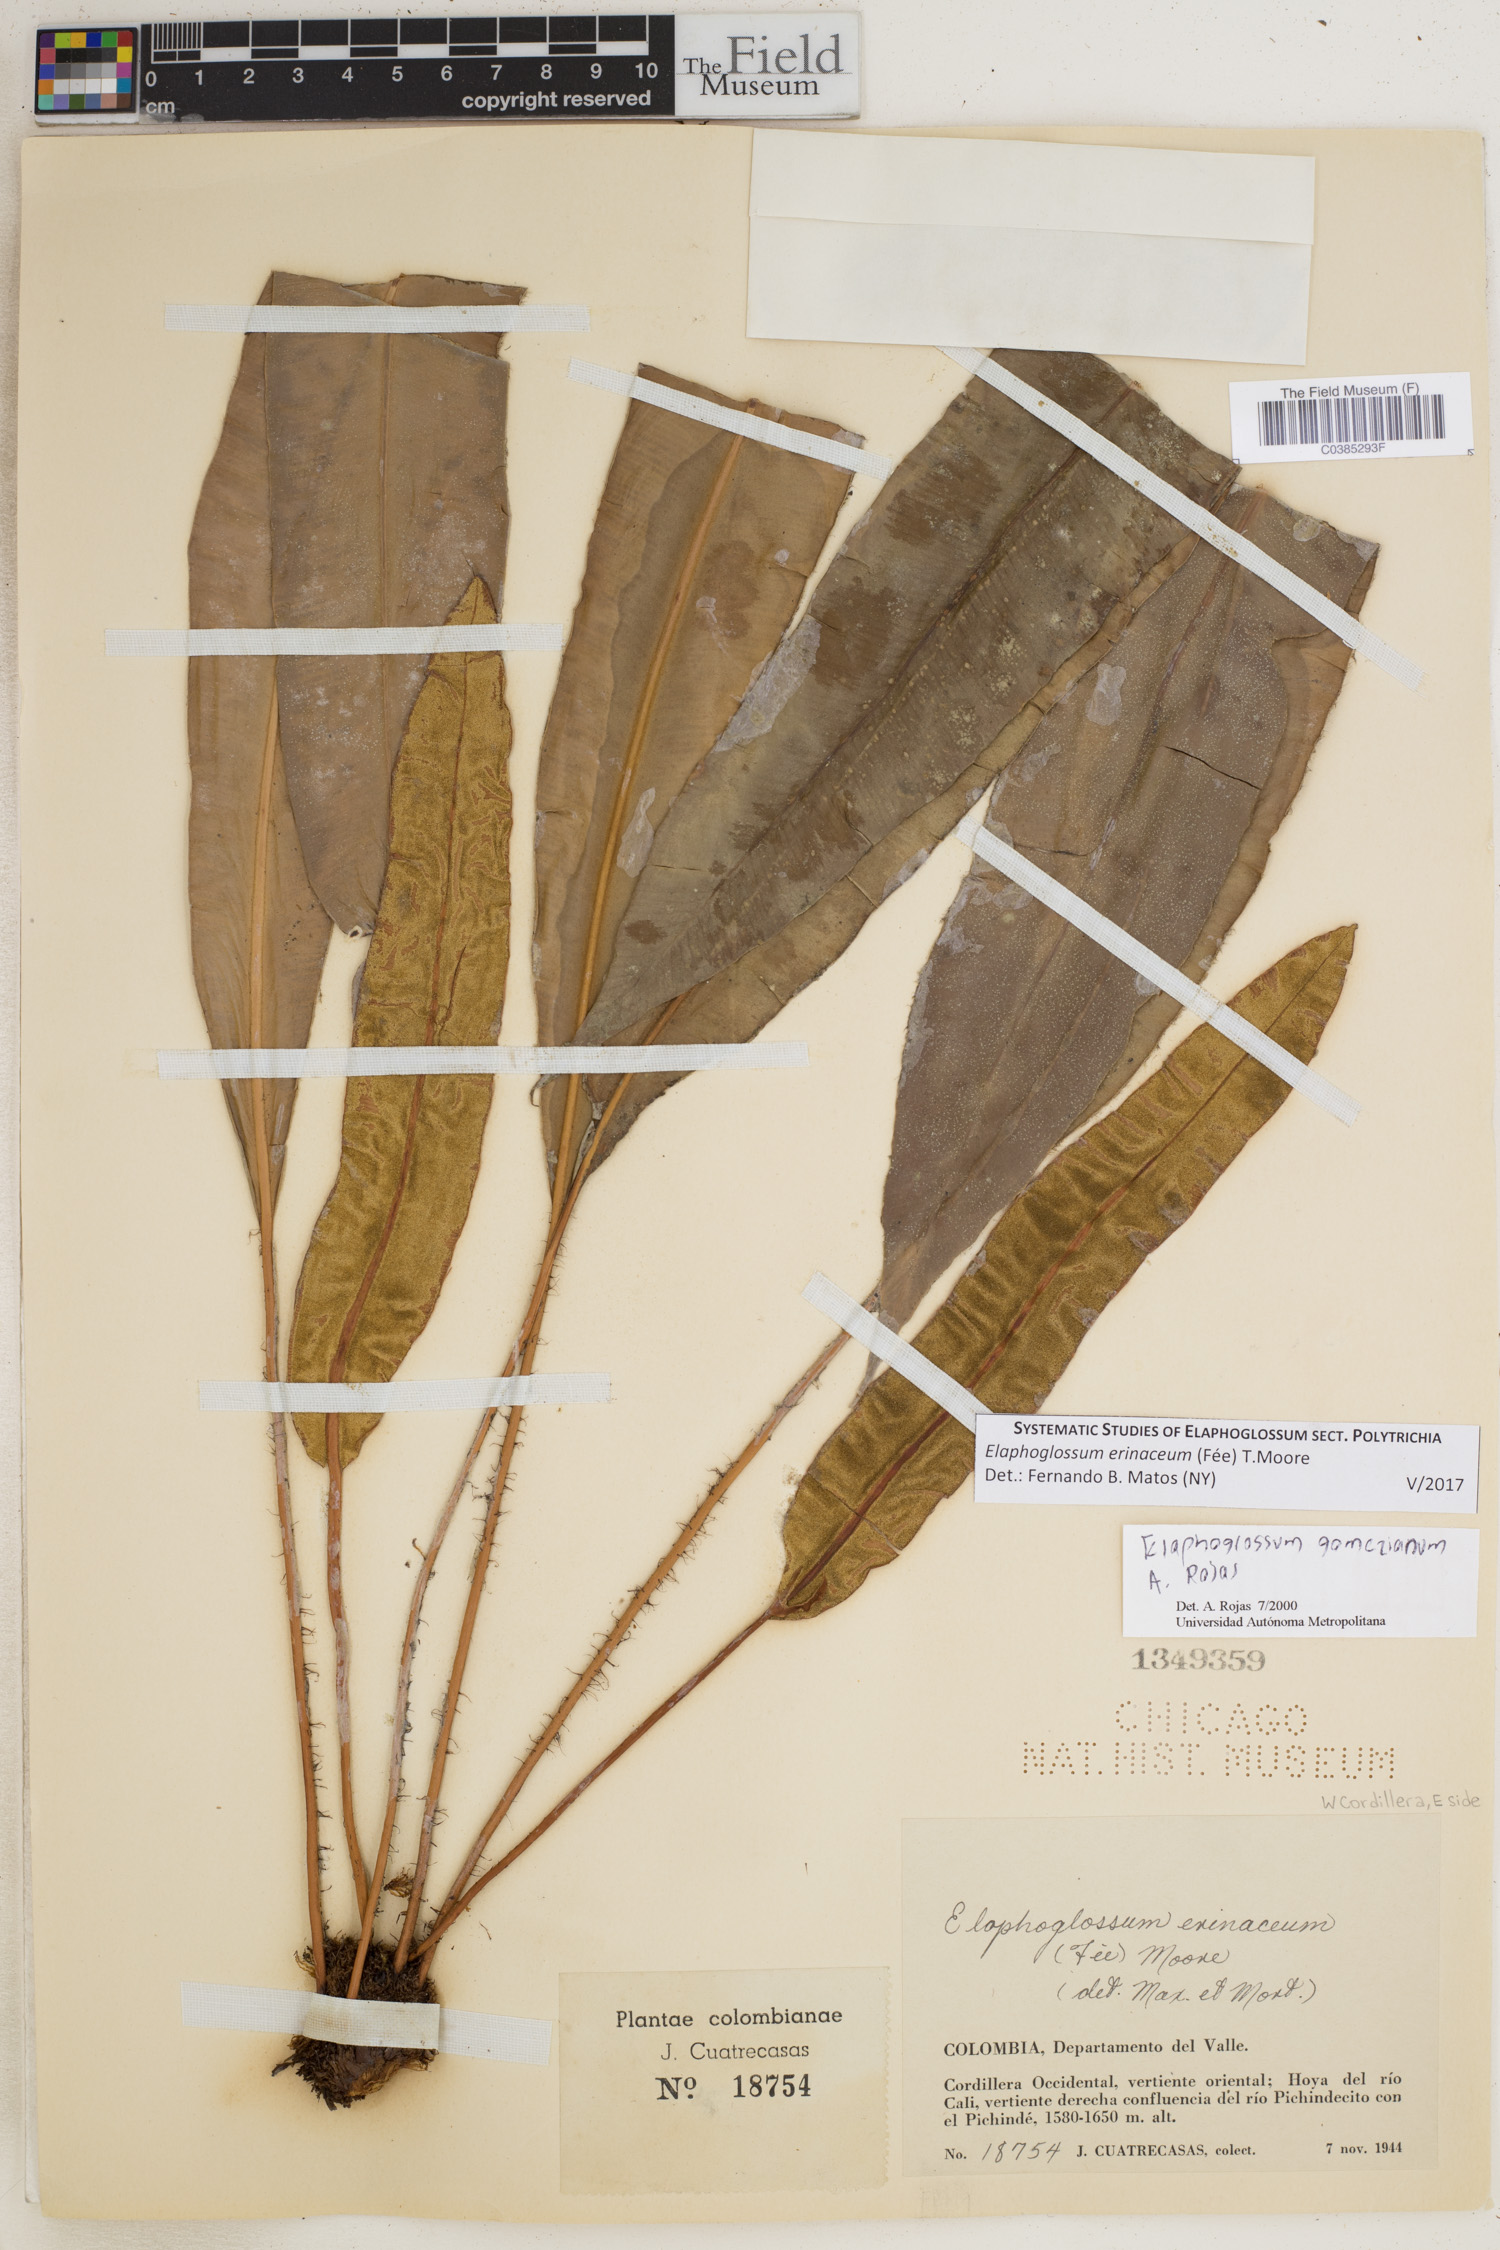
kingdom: Plantae
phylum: Tracheophyta
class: Polypodiopsida
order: Polypodiales
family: Dryopteridaceae
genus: Elaphoglossum
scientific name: Elaphoglossum erinaceum
